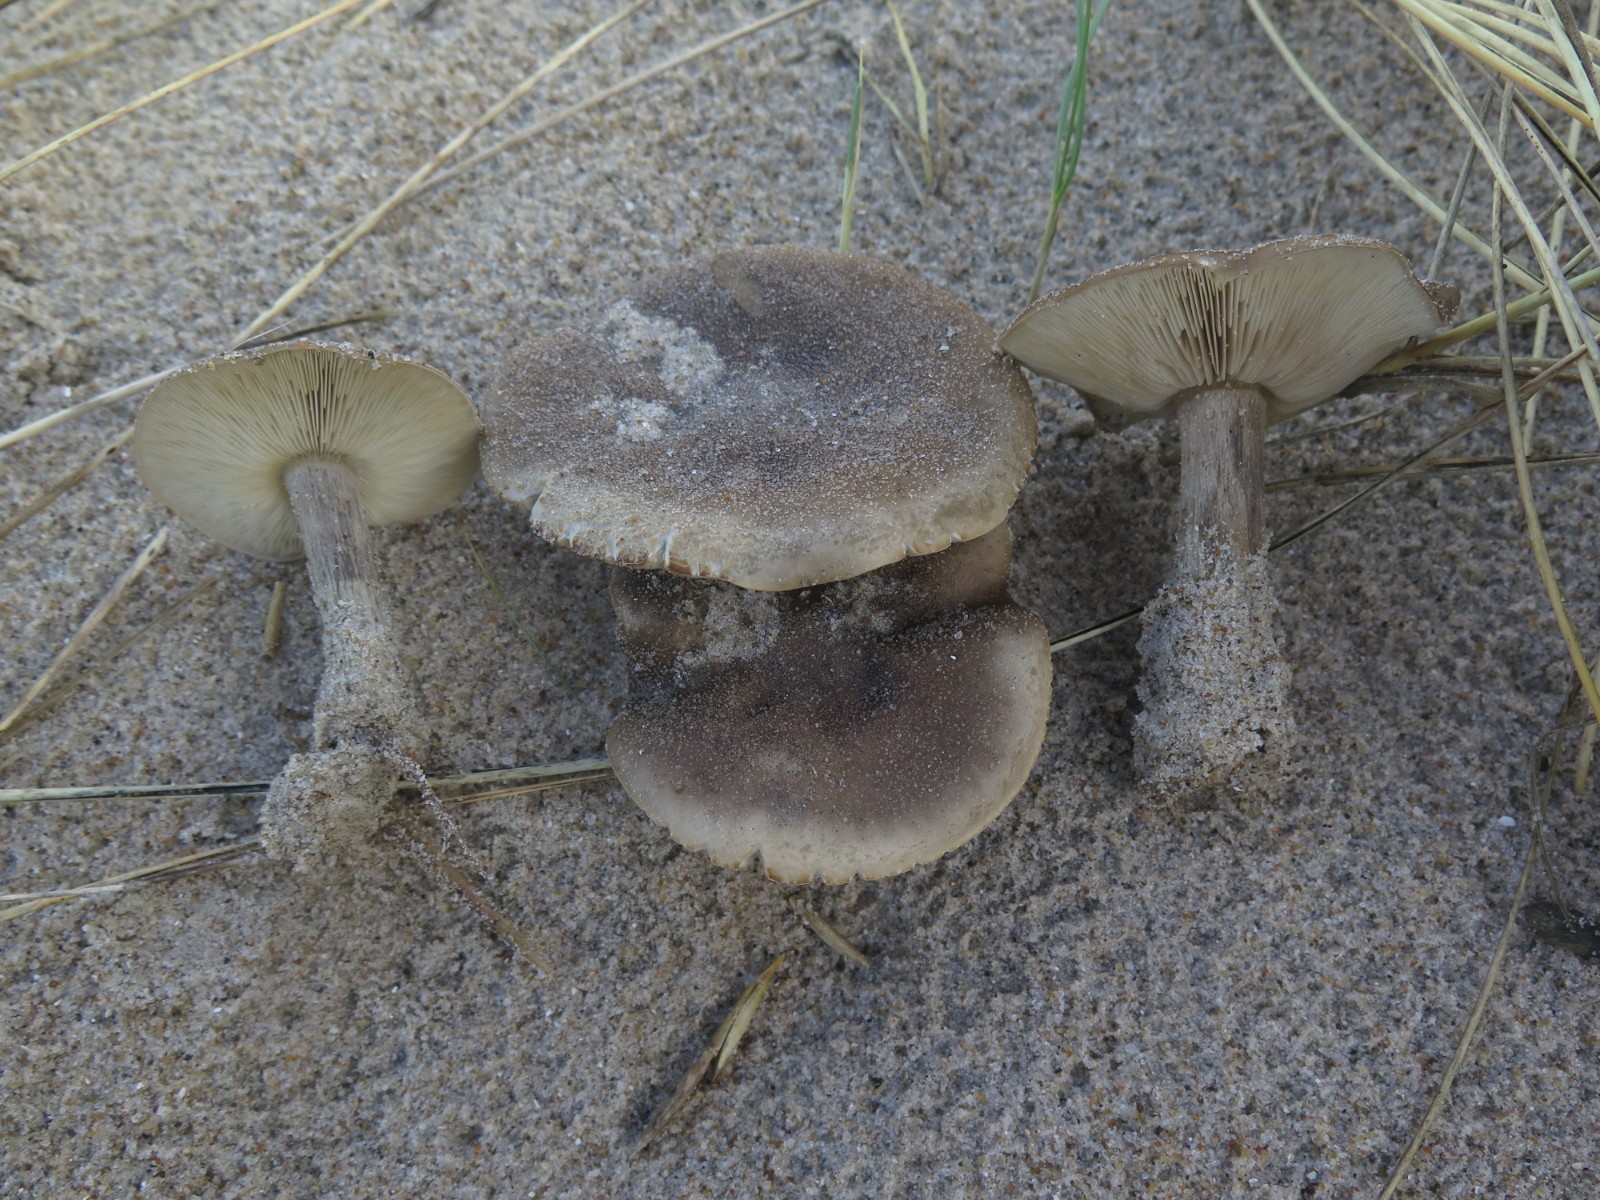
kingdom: Fungi
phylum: Basidiomycota
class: Agaricomycetes
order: Agaricales
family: Tricholomataceae
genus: Melanoleuca
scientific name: Melanoleuca ammophila
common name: gråbladet munkehat
